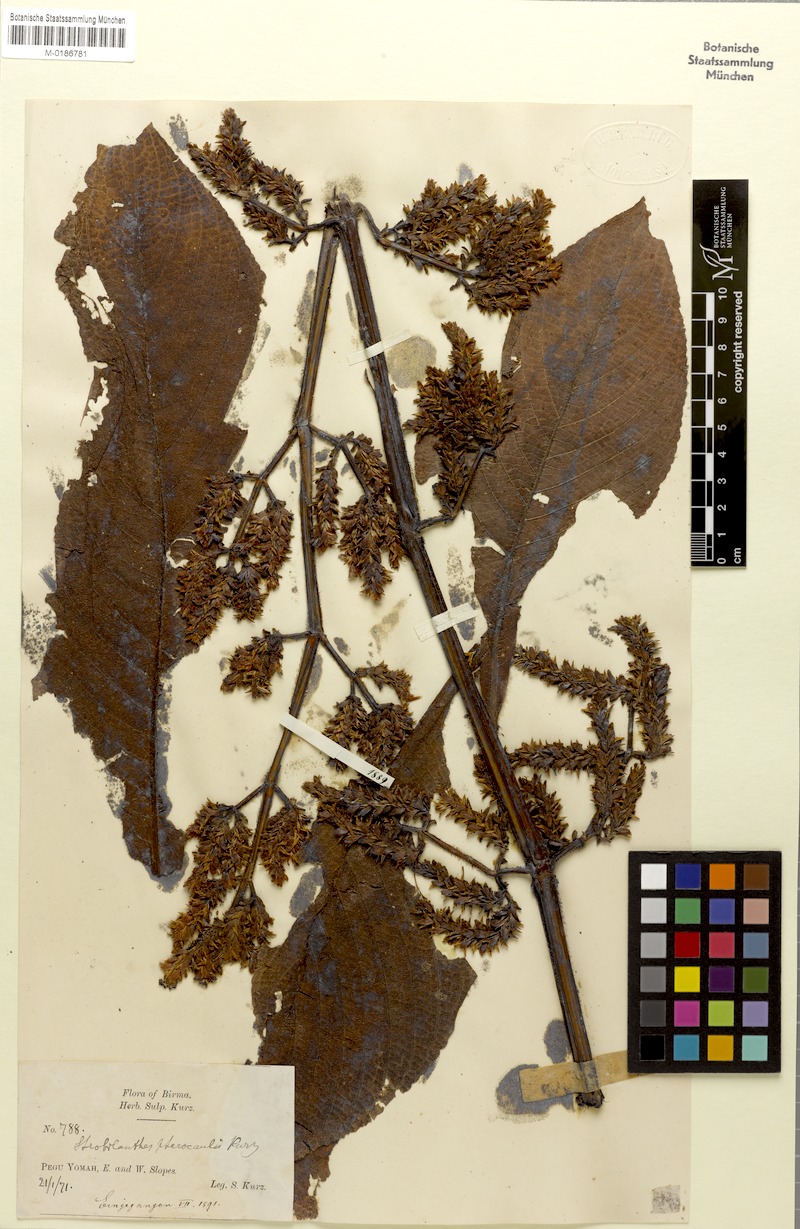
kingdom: Plantae
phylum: Tracheophyta
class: Magnoliopsida
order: Lamiales
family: Acanthaceae
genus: Strobilanthes
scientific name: Strobilanthes imbricata
